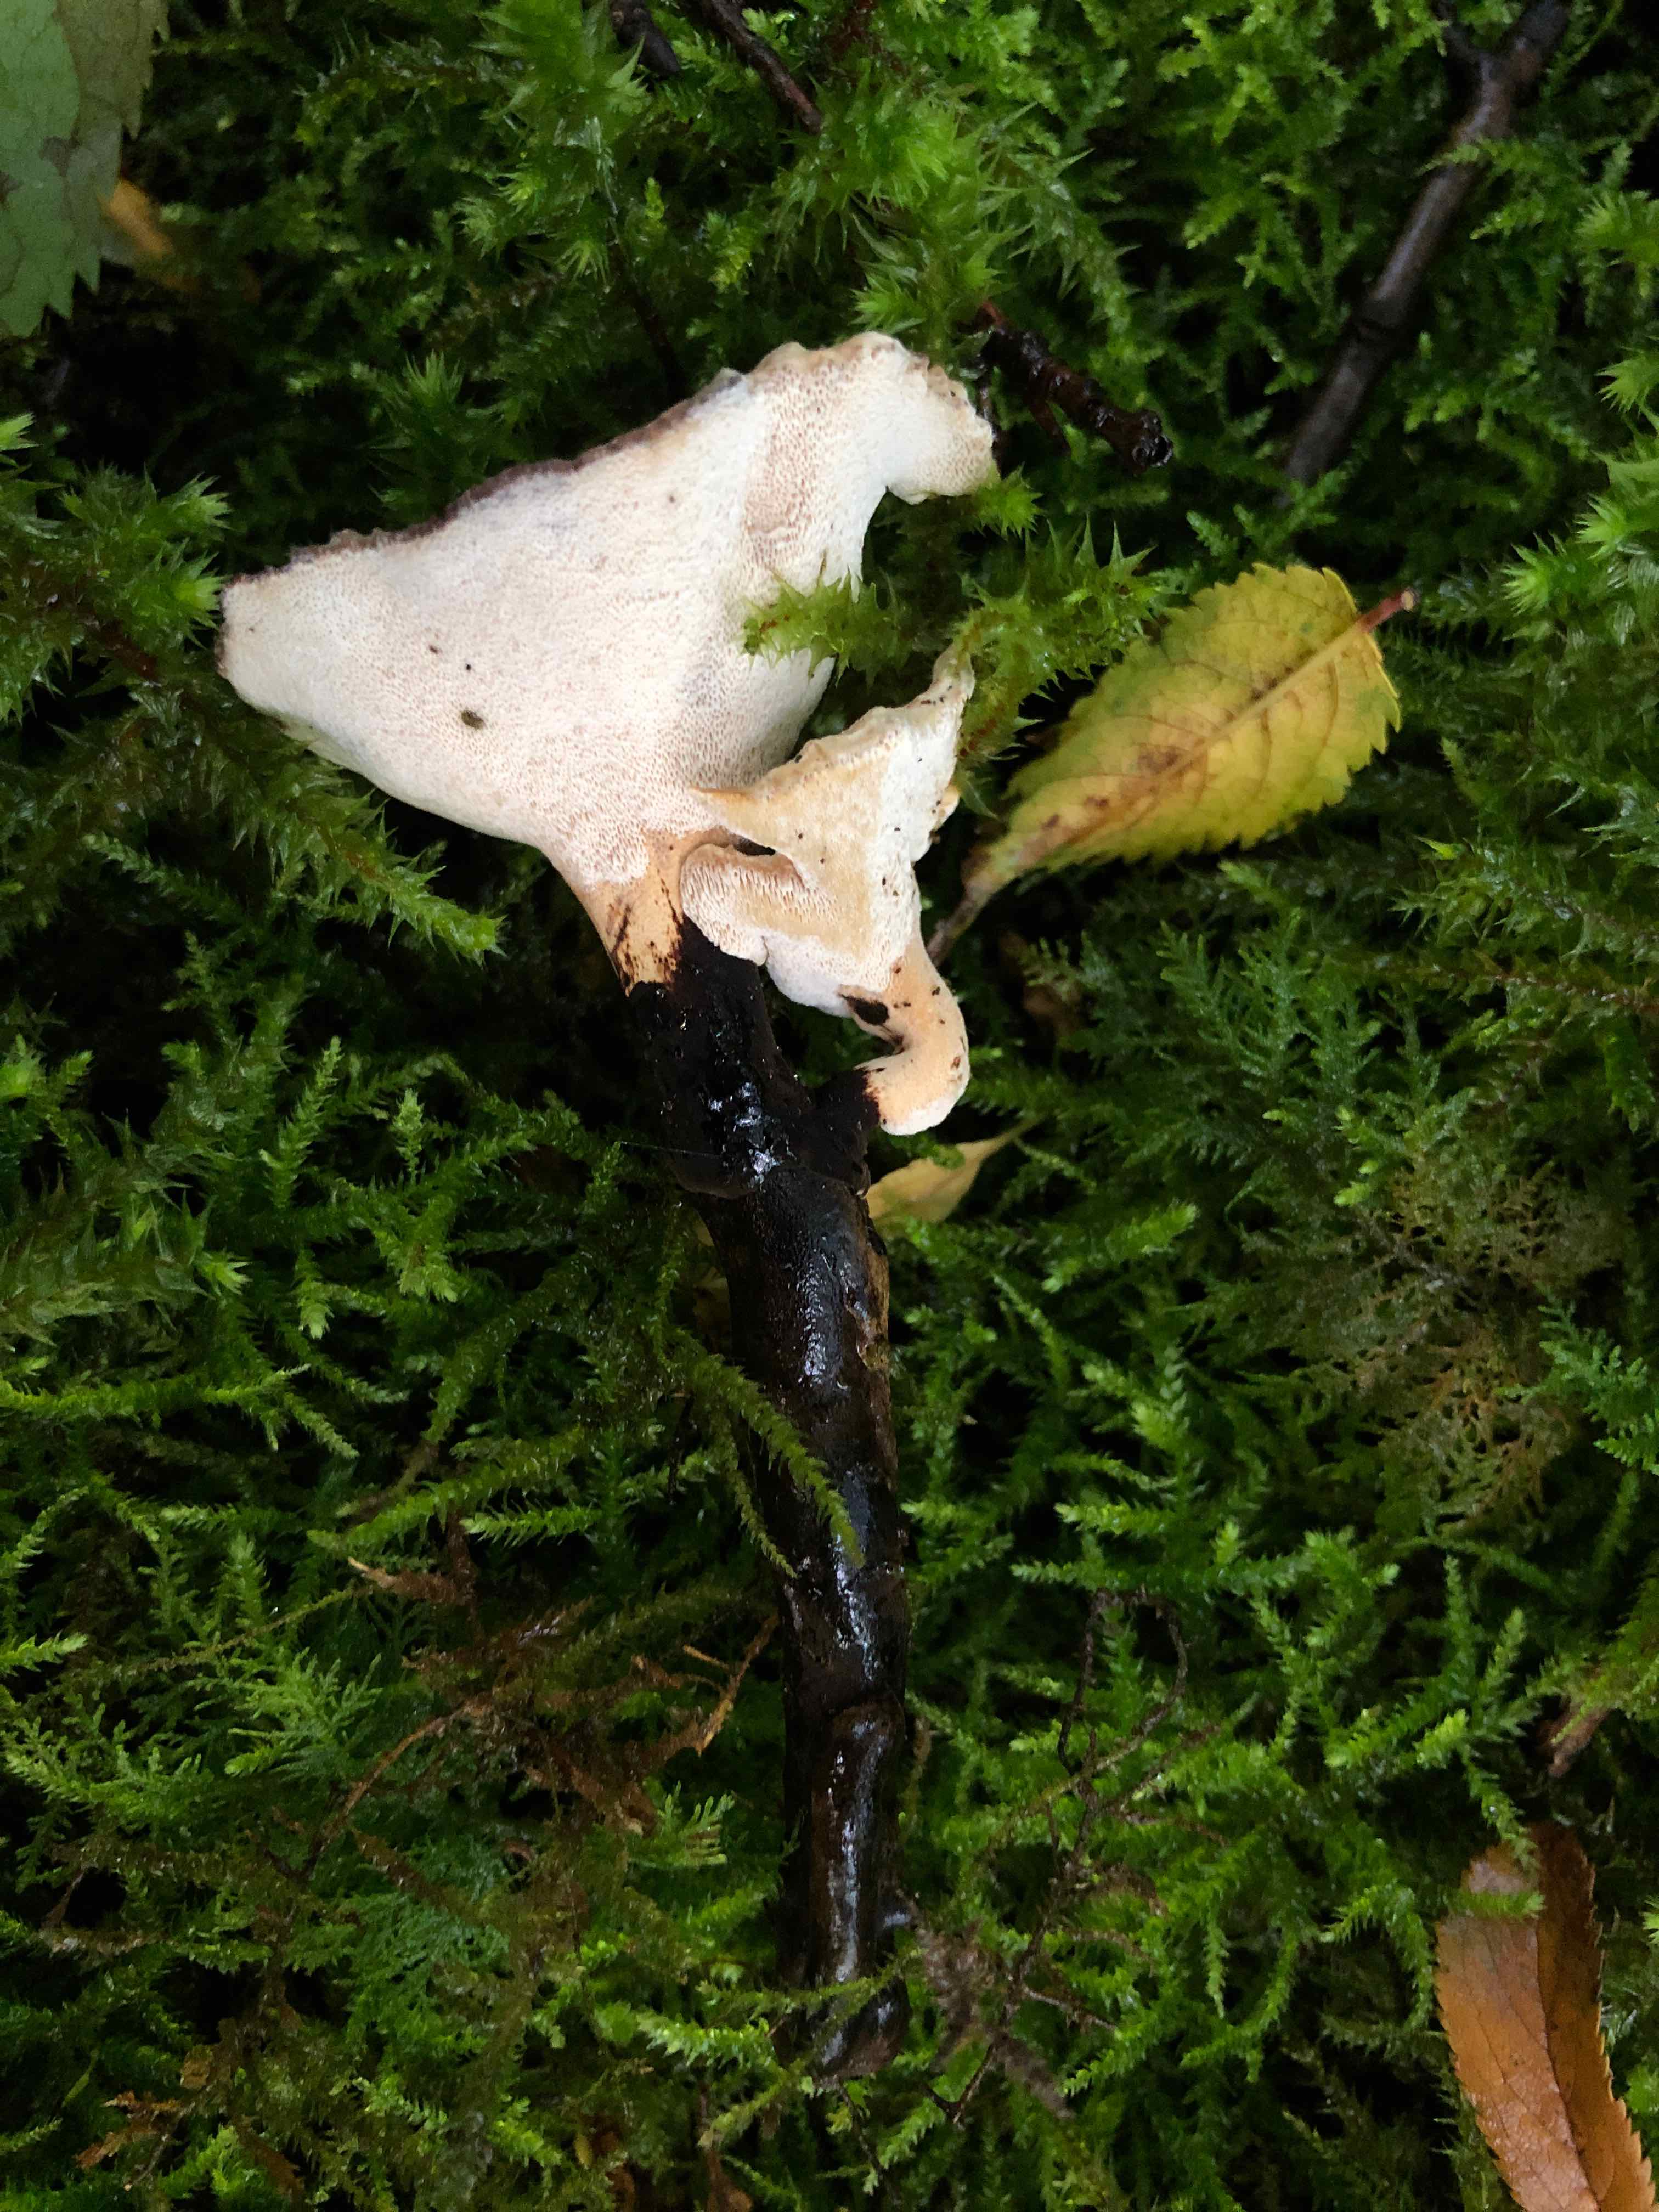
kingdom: Fungi
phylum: Basidiomycota
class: Agaricomycetes
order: Polyporales
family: Polyporaceae
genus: Cerioporus
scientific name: Cerioporus varius
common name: foranderlig stilkporesvamp
